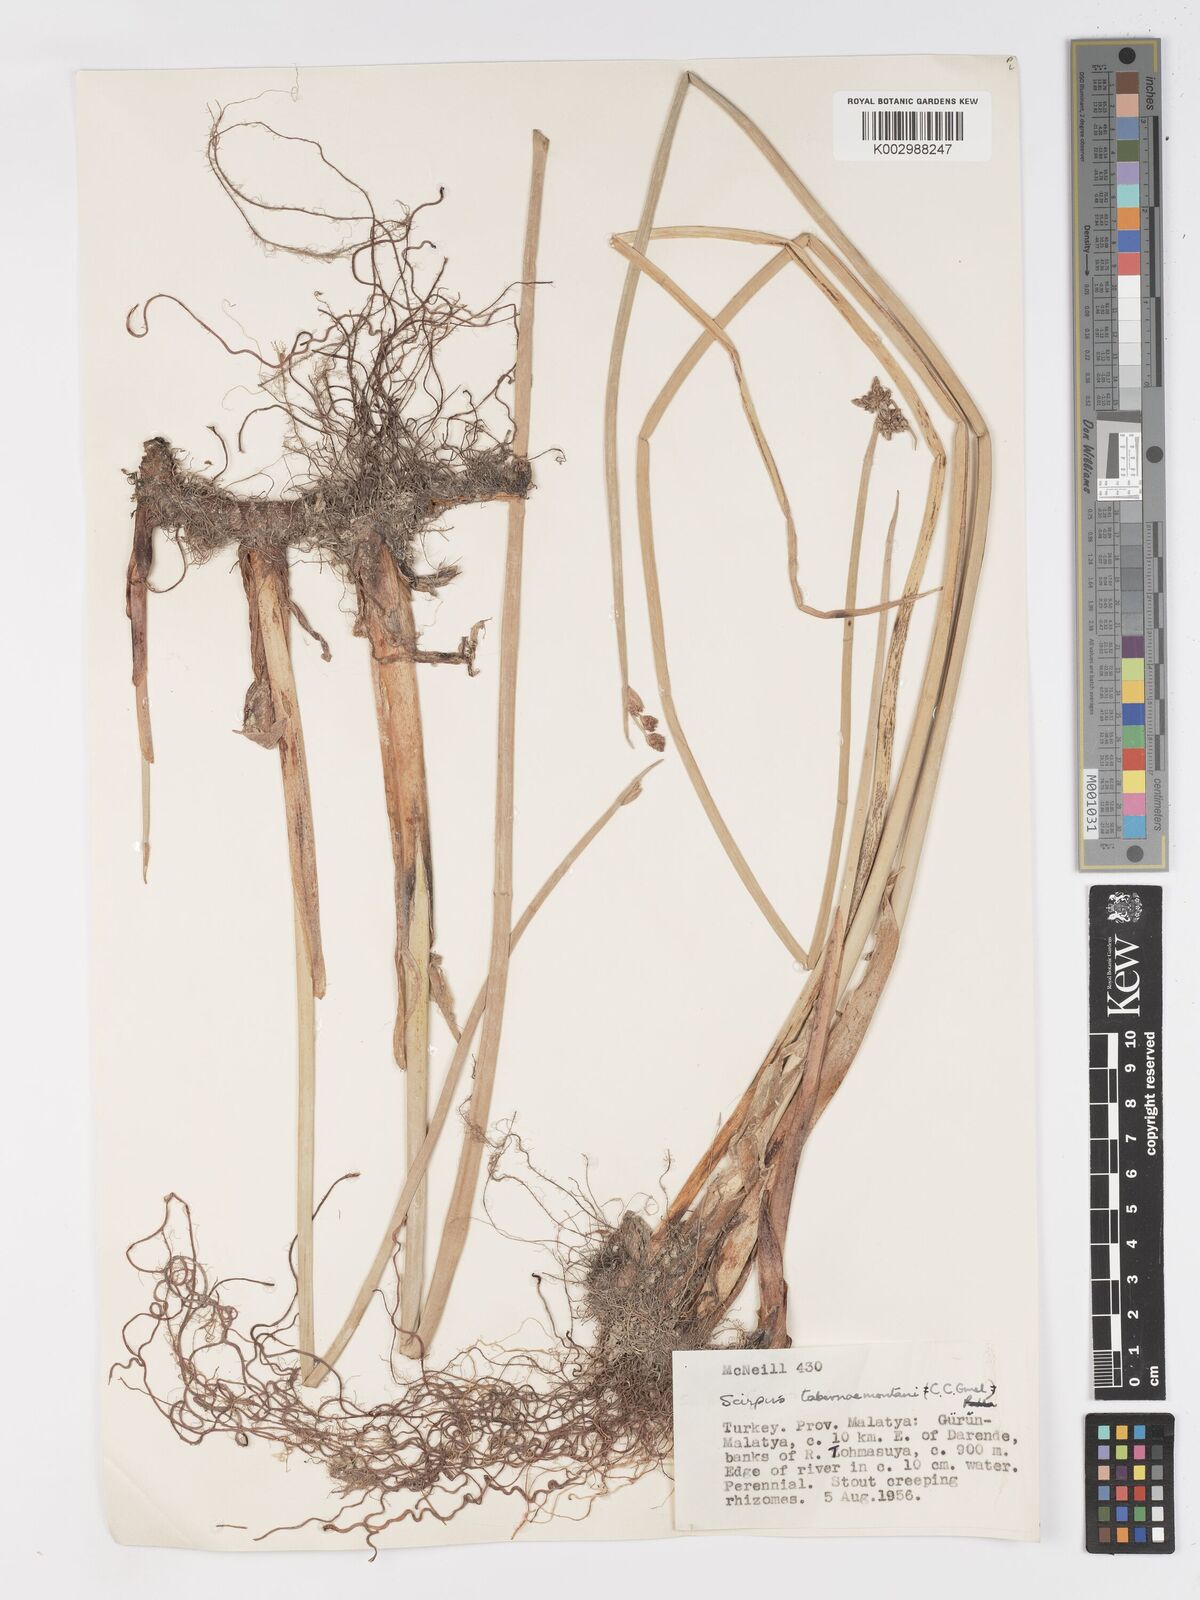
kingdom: Plantae
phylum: Tracheophyta
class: Liliopsida
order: Poales
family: Cyperaceae
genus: Schoenoplectus
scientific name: Schoenoplectus tabernaemontani
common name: Grey club-rush
